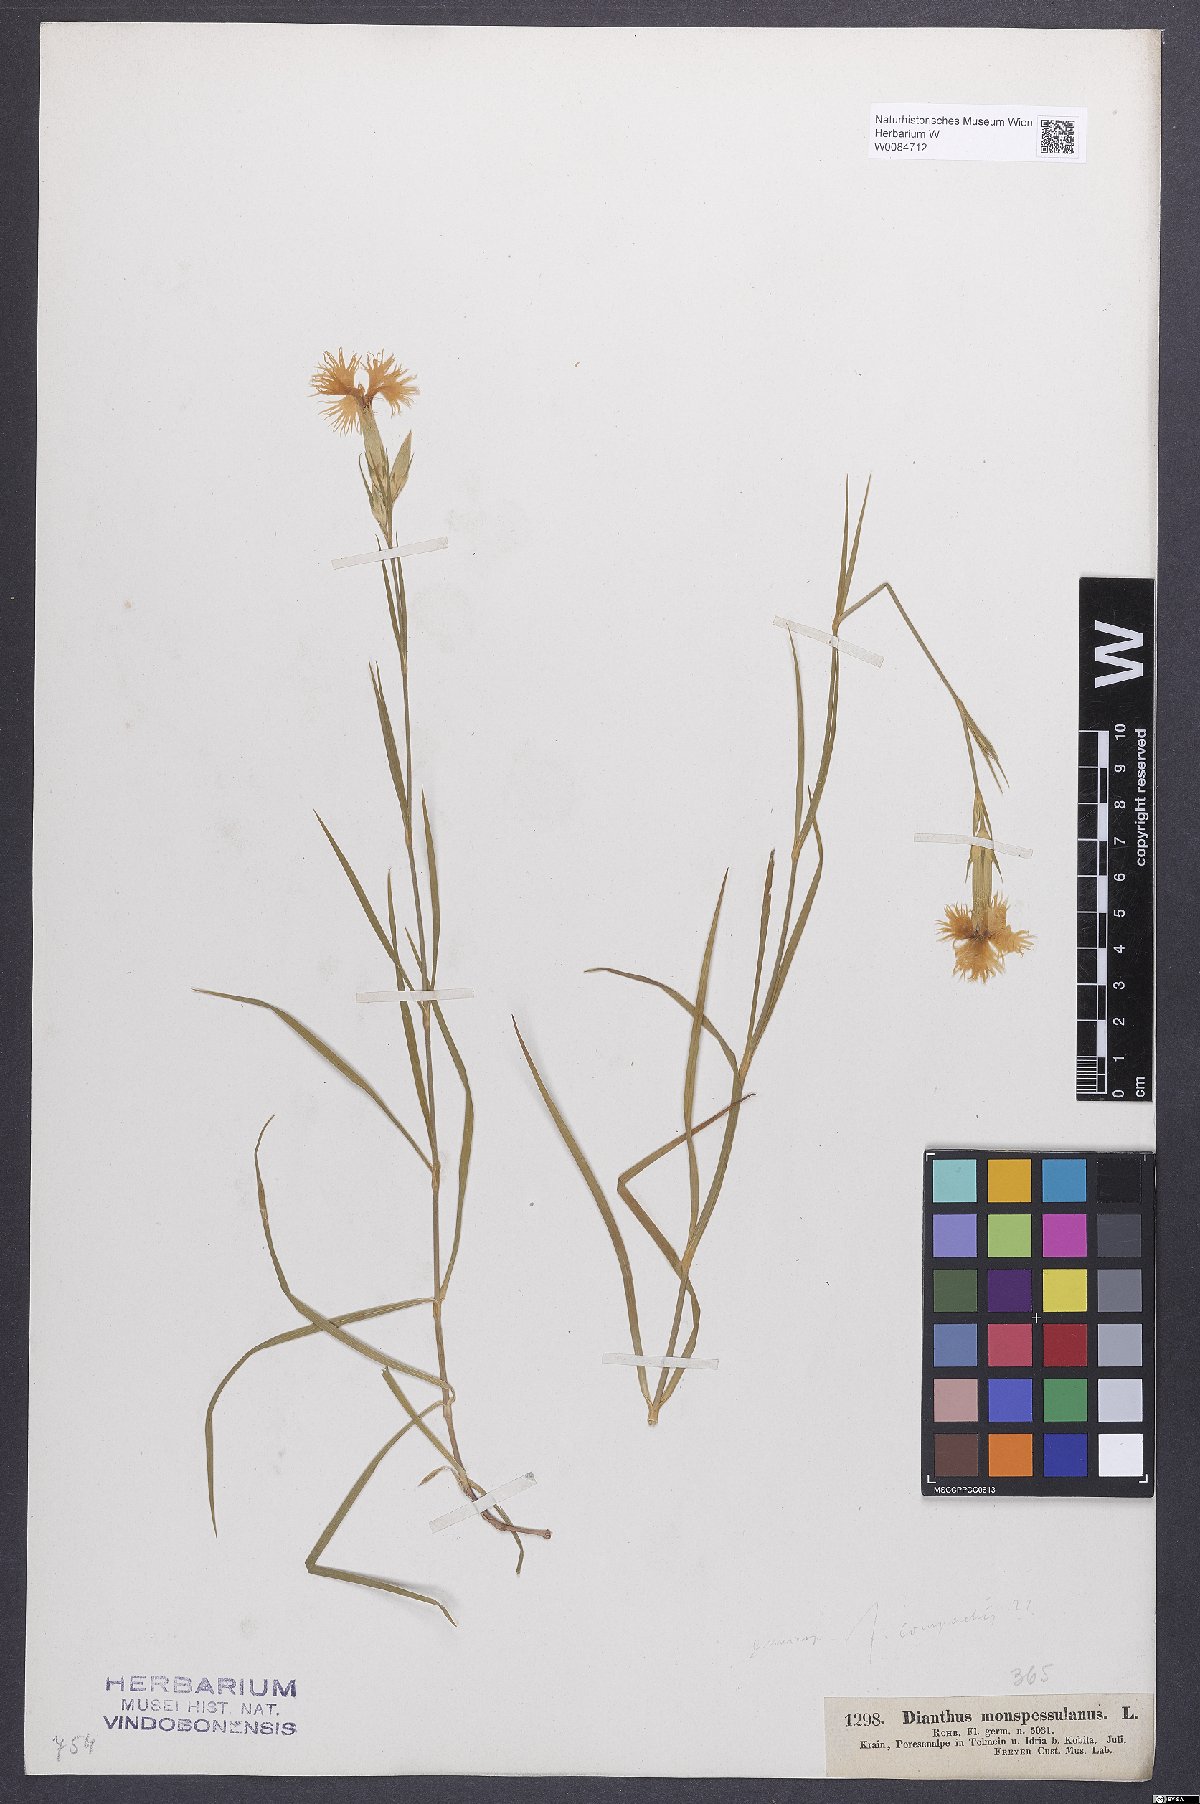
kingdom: Plantae
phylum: Tracheophyta
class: Magnoliopsida
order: Caryophyllales
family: Caryophyllaceae
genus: Dianthus
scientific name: Dianthus hyssopifolius
